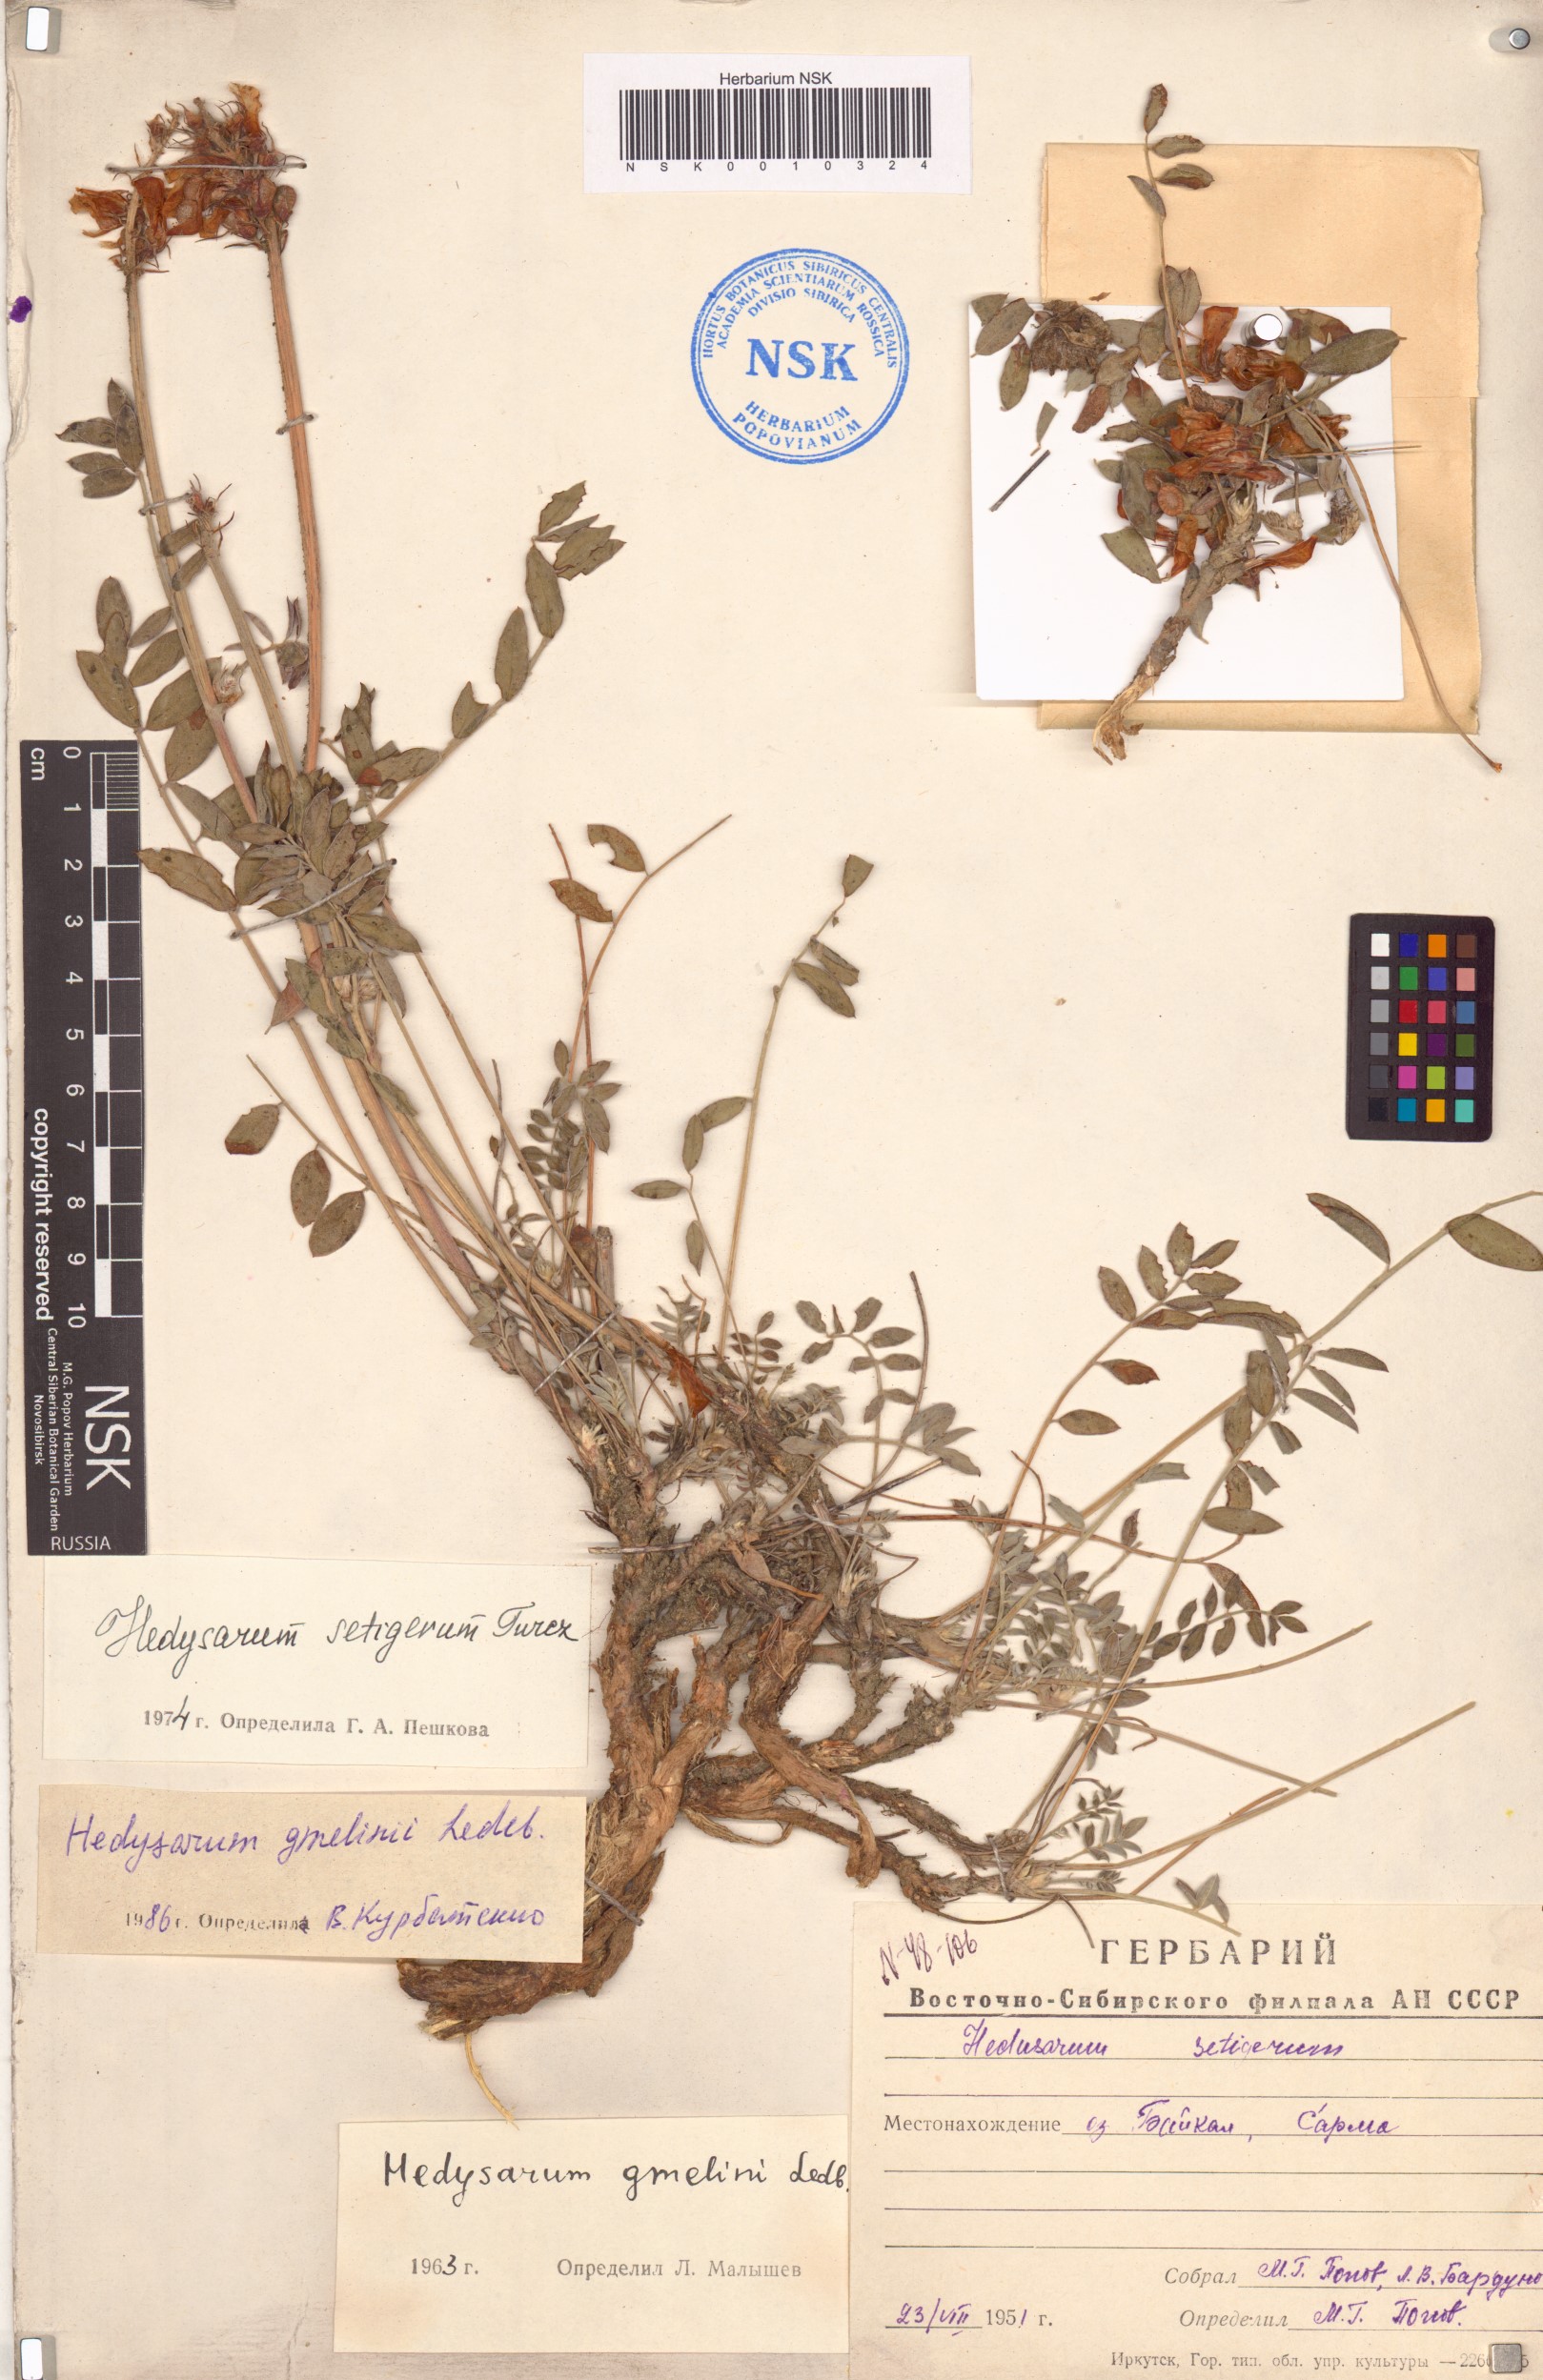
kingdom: Plantae
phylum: Tracheophyta
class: Magnoliopsida
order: Fabales
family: Fabaceae
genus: Hedysarum
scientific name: Hedysarum gmelinii
